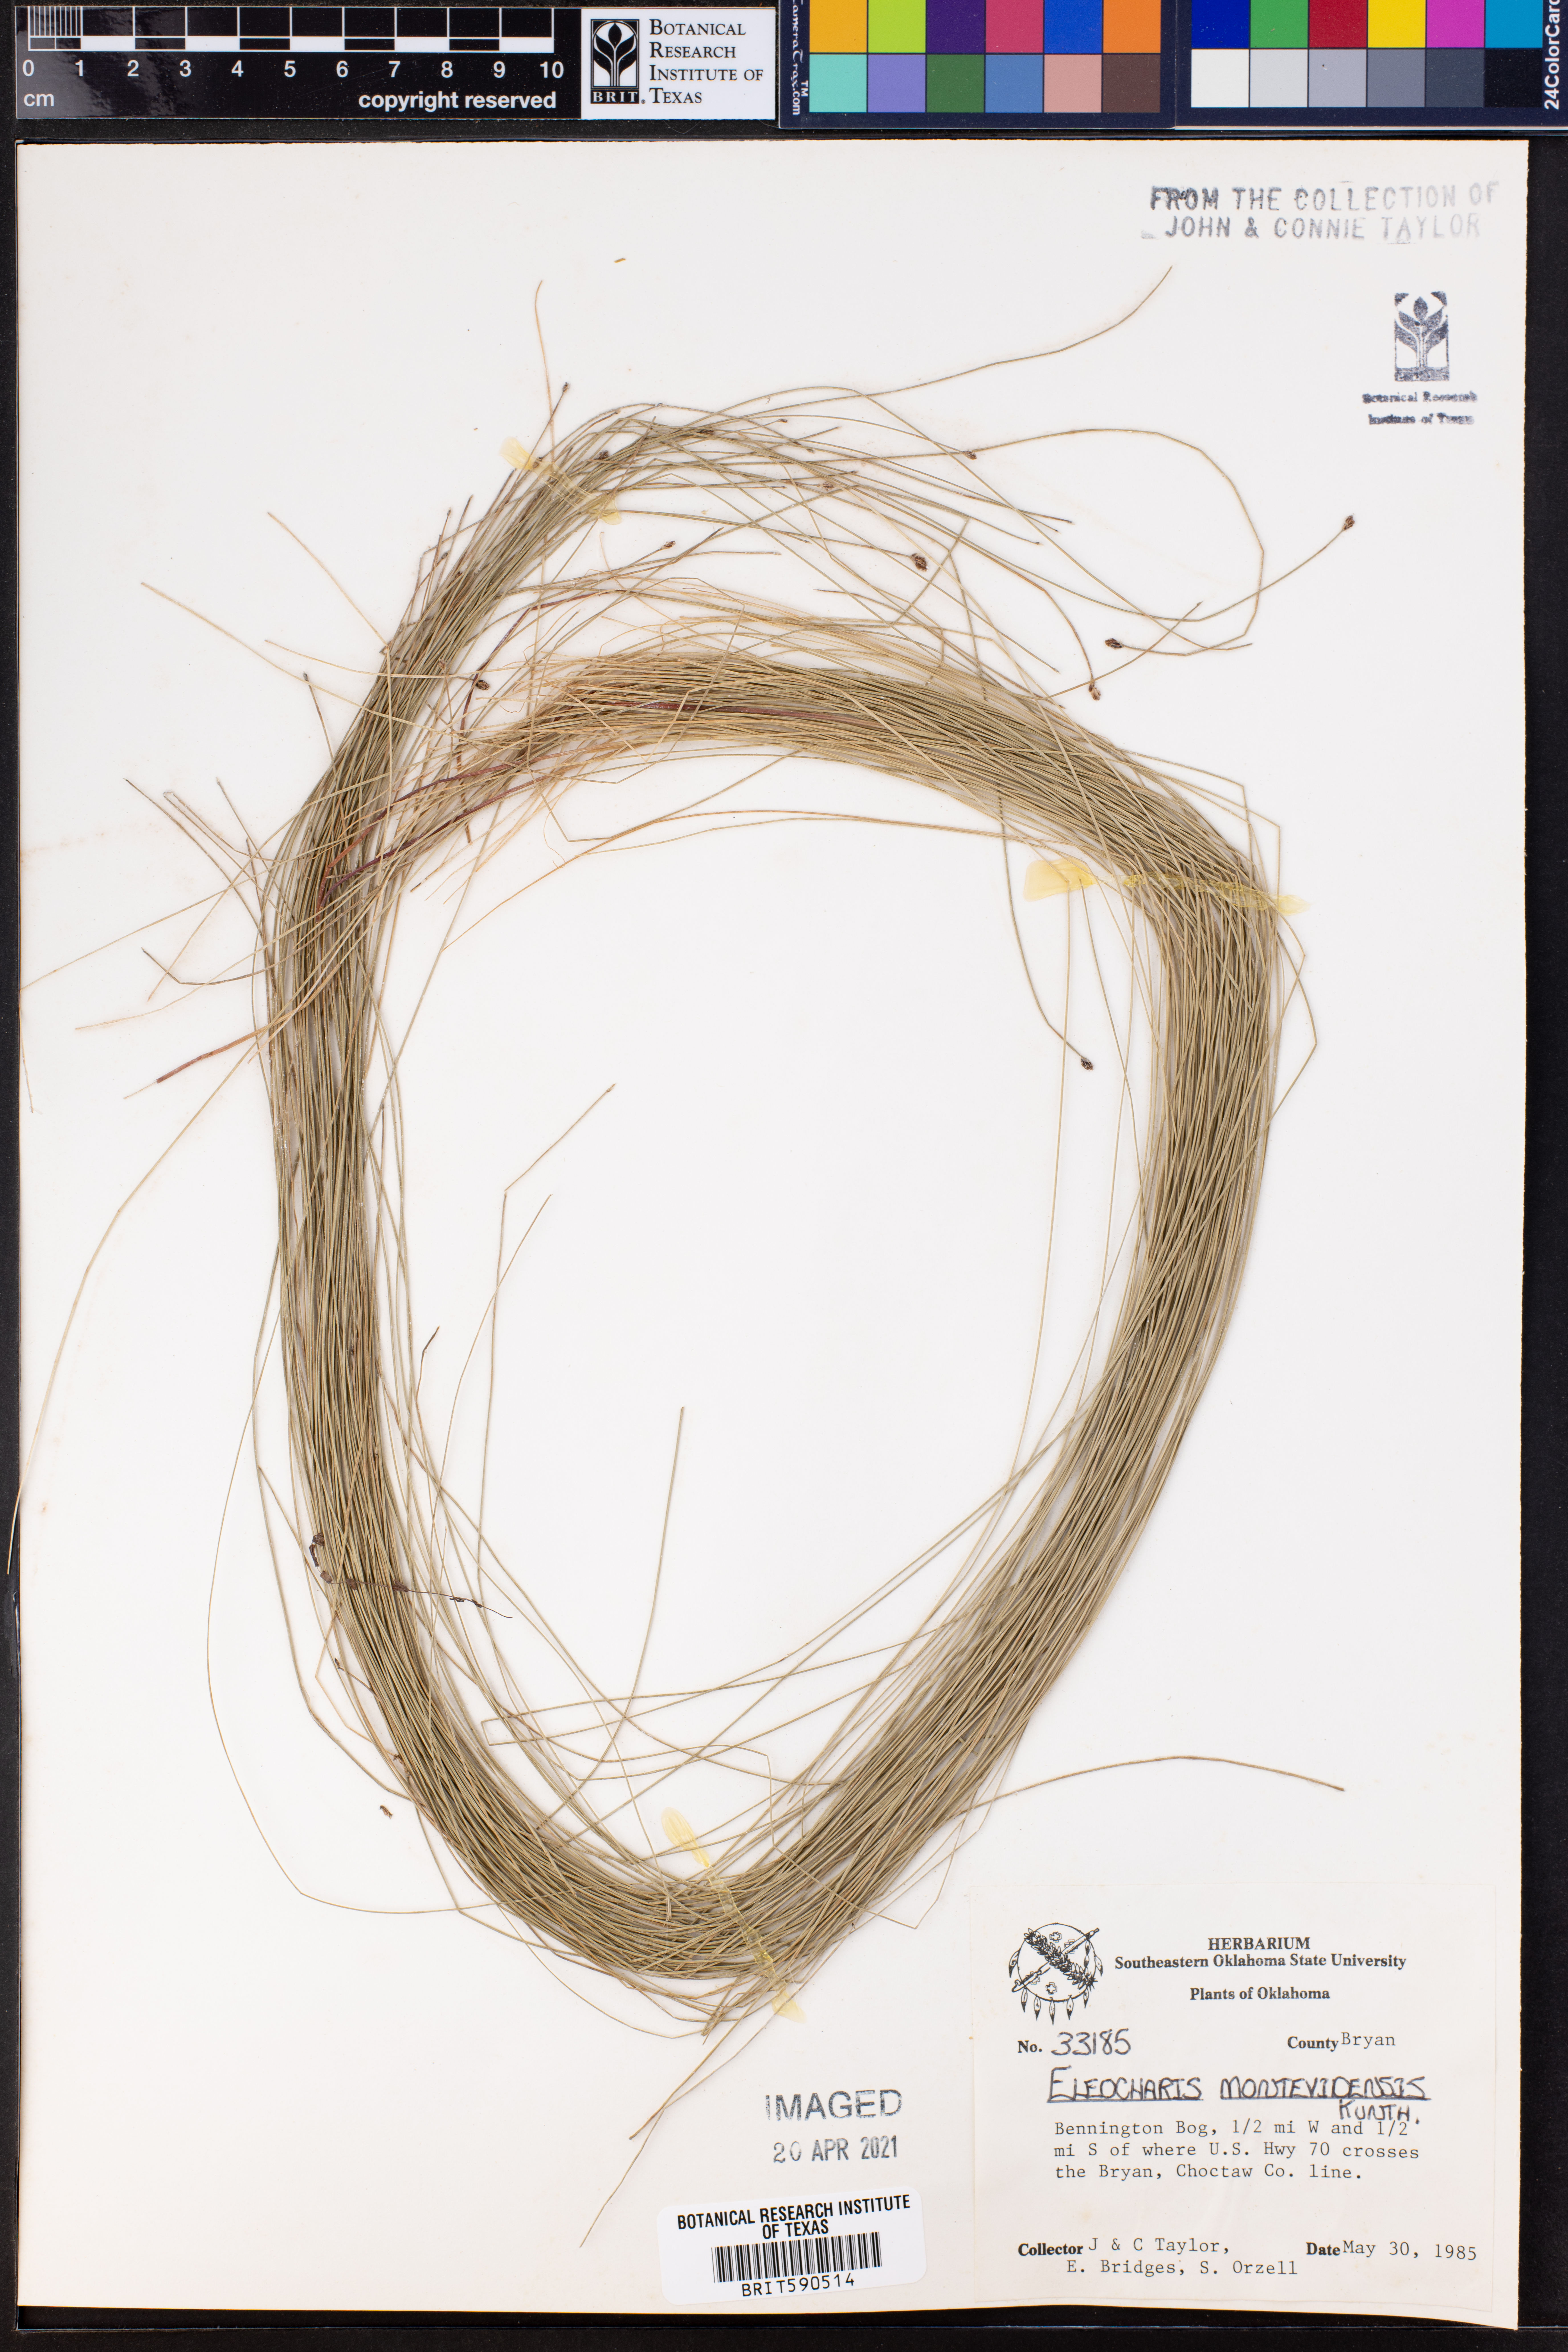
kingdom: Plantae
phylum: Tracheophyta
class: Liliopsida
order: Poales
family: Cyperaceae
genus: Eleocharis
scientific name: Eleocharis montevidensis
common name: Sand spike-rush
